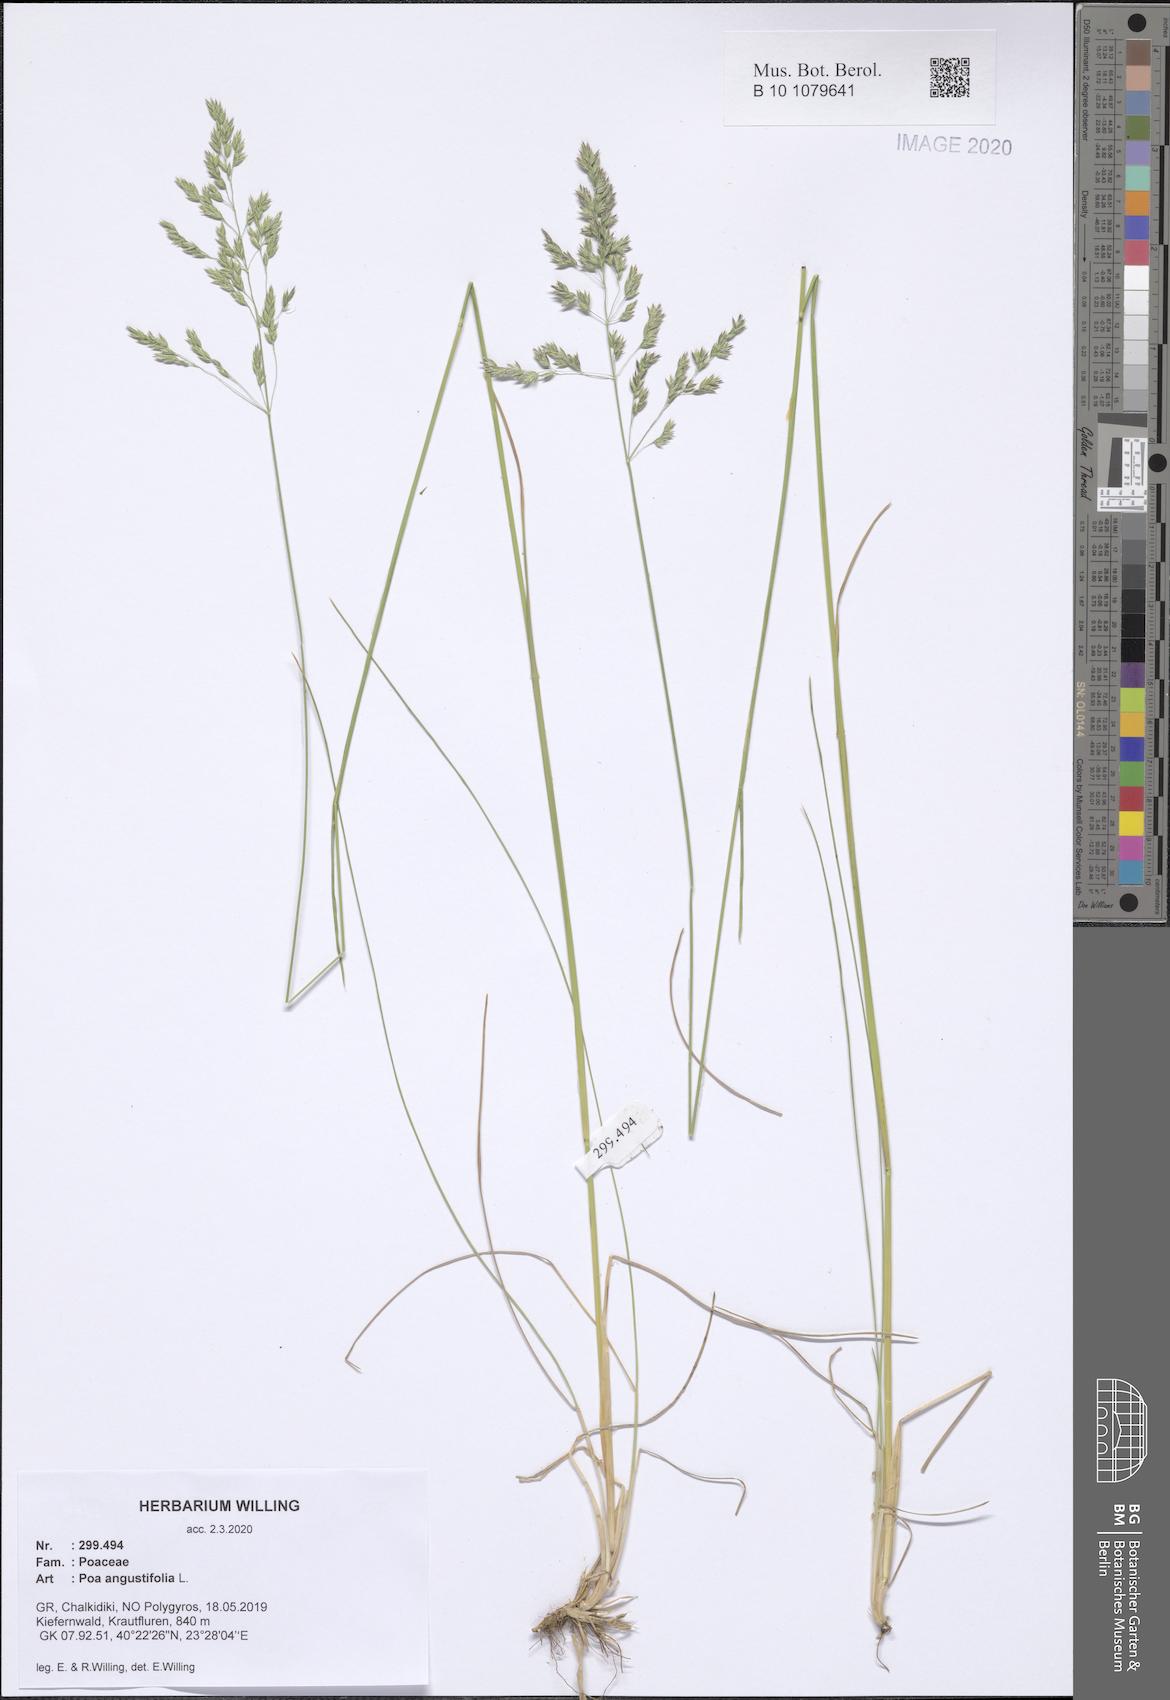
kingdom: Plantae
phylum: Tracheophyta
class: Liliopsida
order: Poales
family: Poaceae
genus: Poa
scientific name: Poa angustifolia
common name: Narrow-leaved meadow-grass
